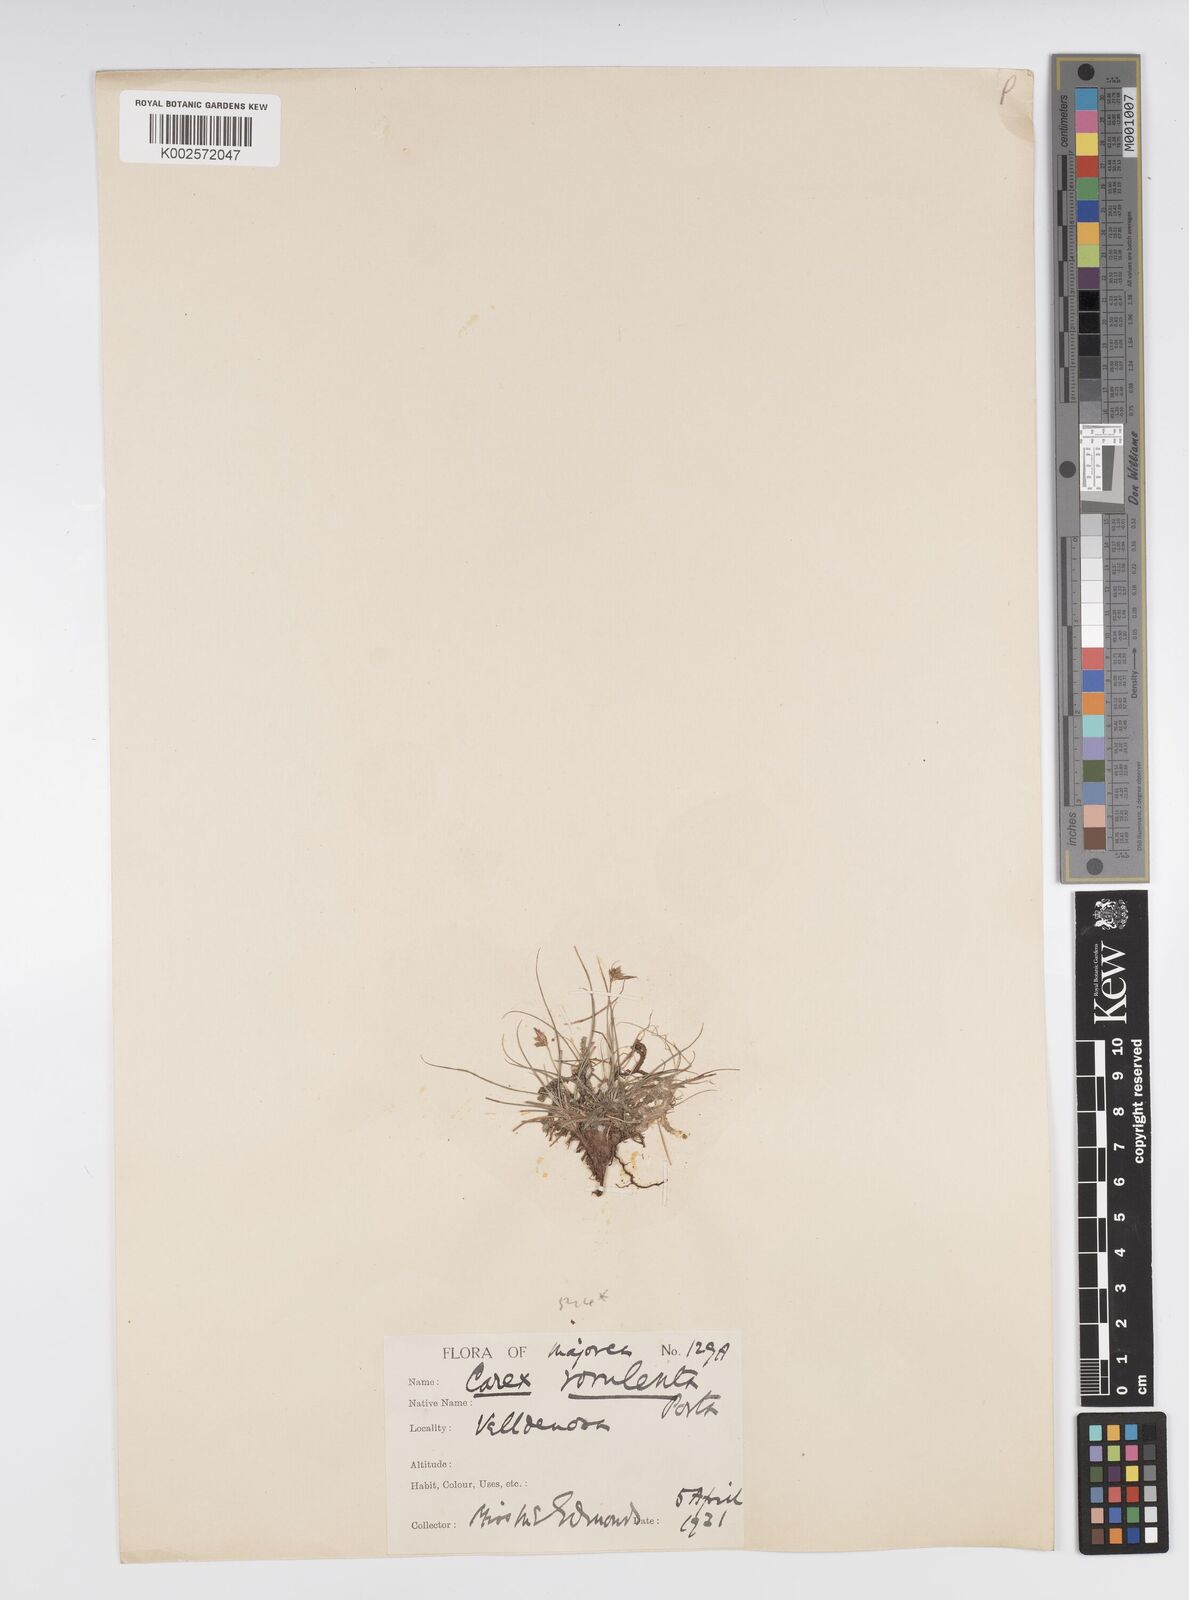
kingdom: Plantae
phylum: Tracheophyta
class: Liliopsida
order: Poales
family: Cyperaceae
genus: Carex
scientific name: Carex rorulenta
